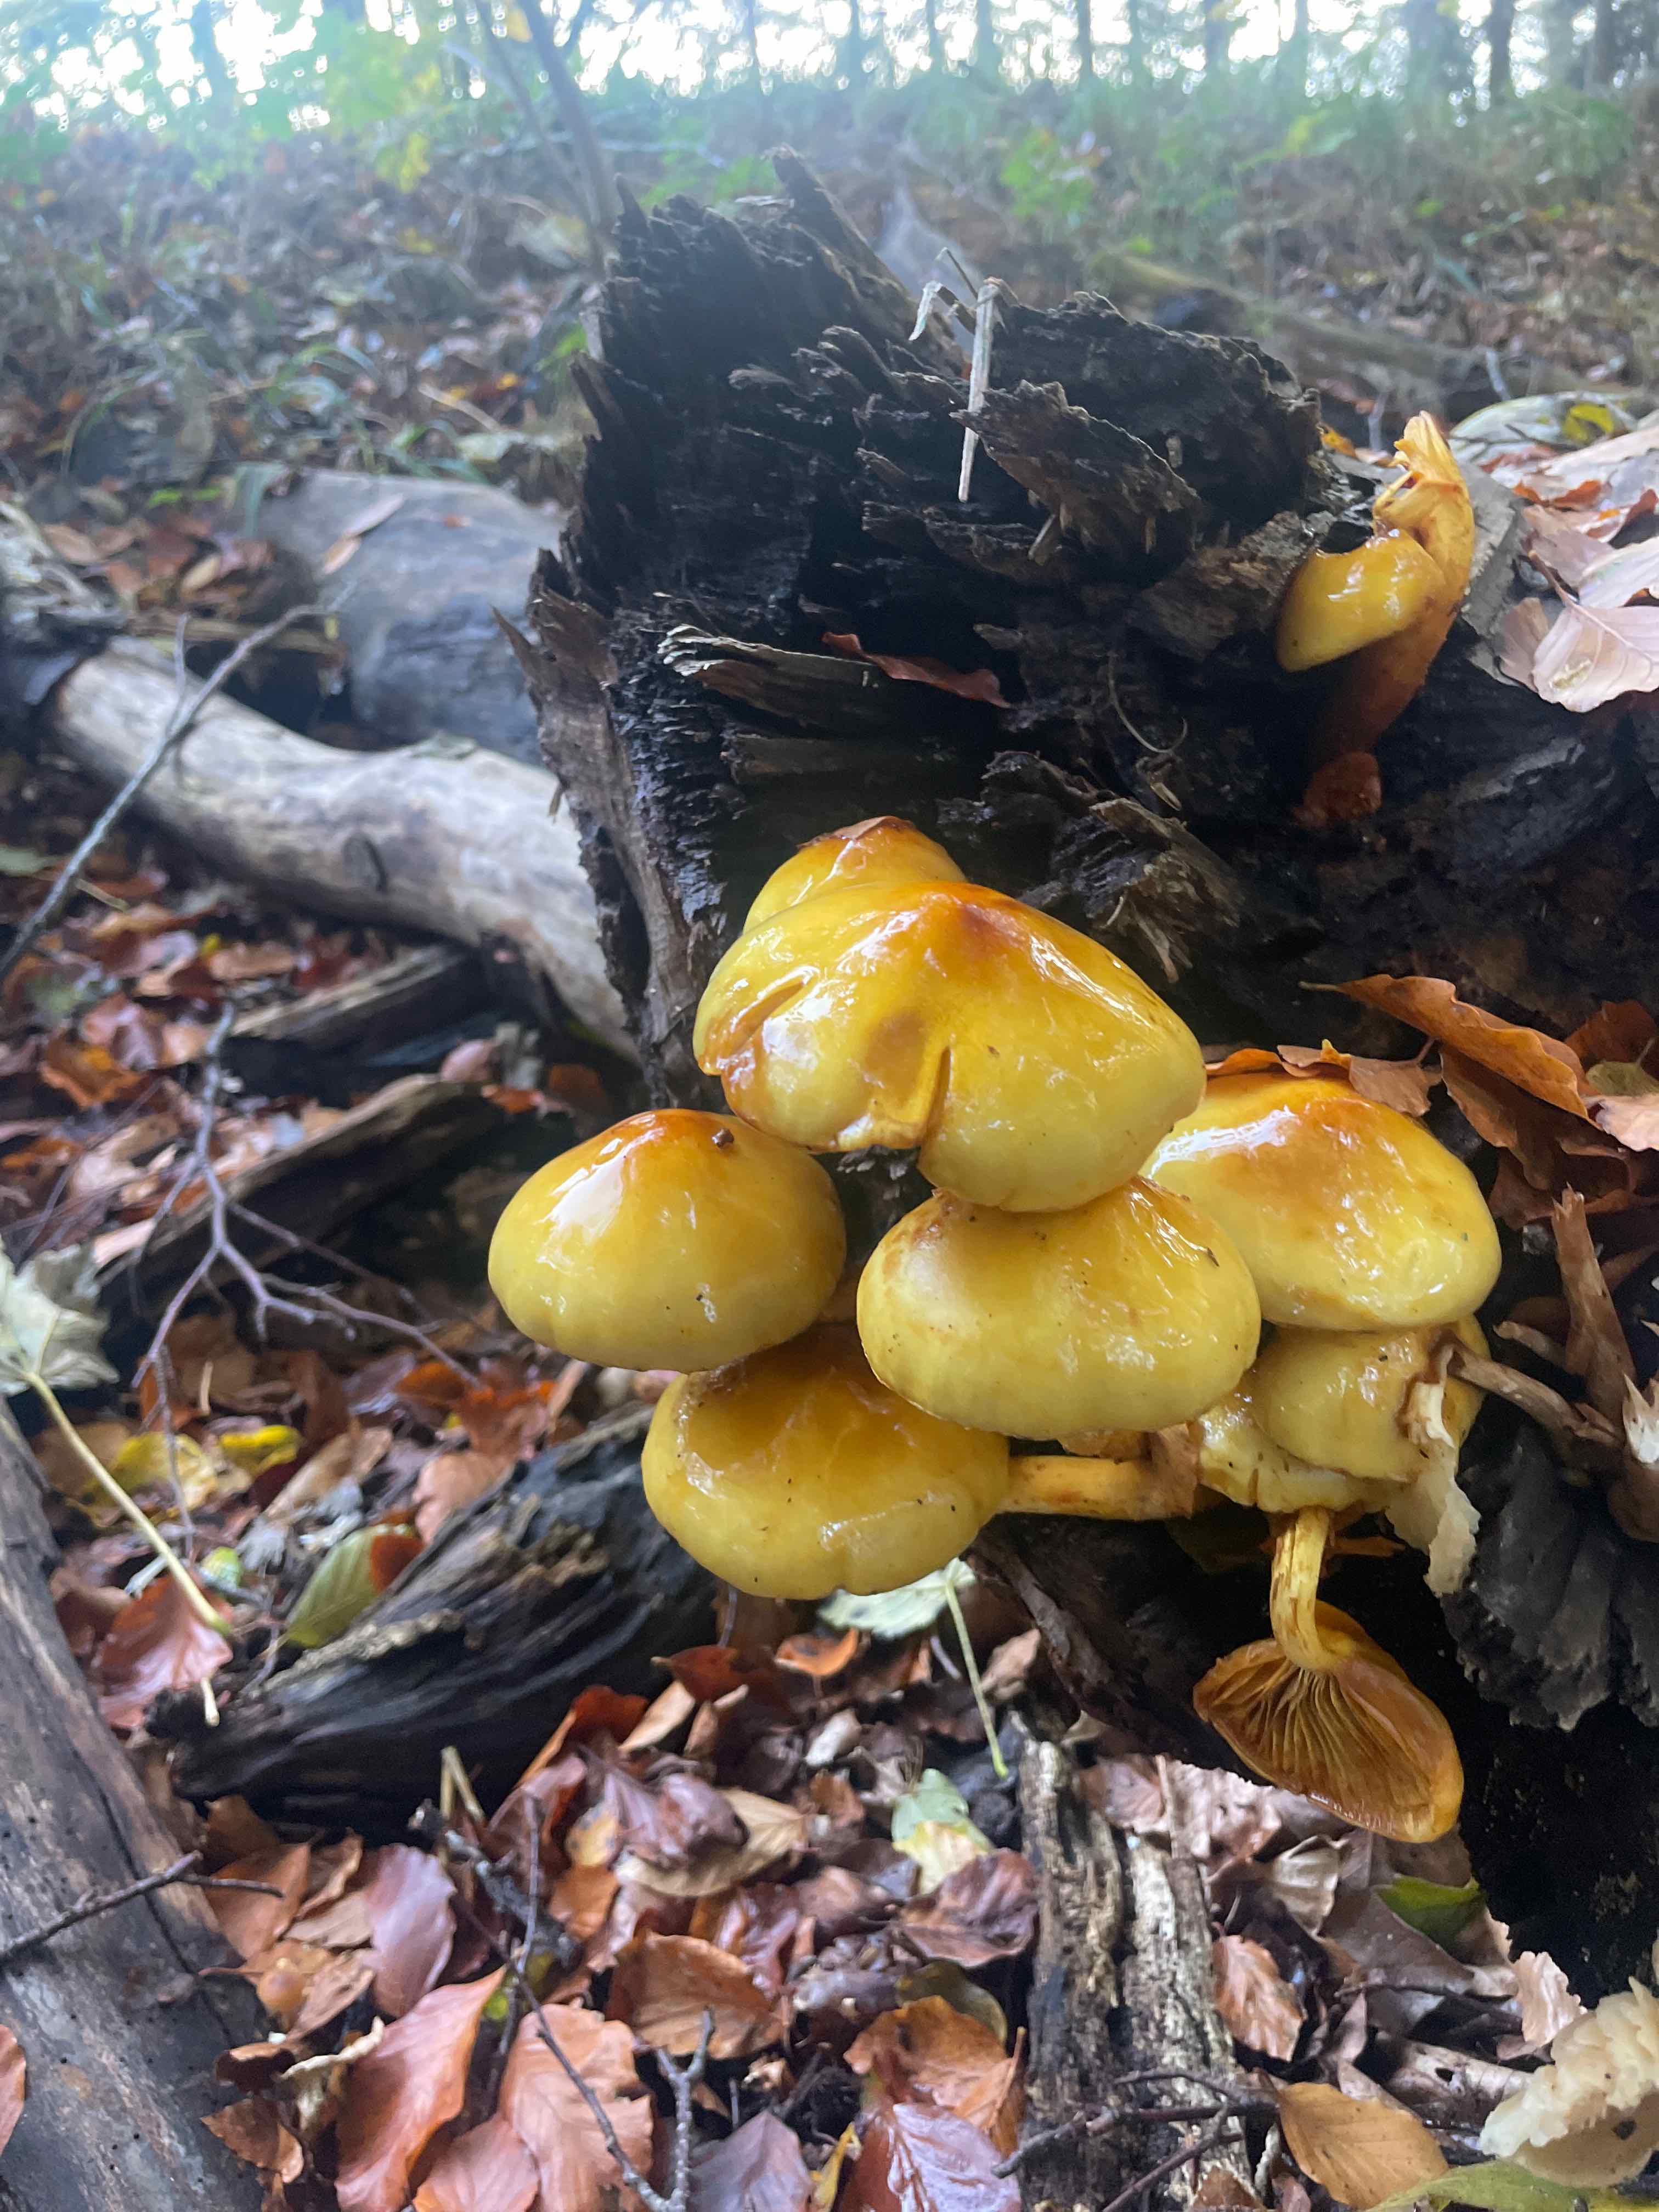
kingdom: Fungi
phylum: Basidiomycota
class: Agaricomycetes
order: Agaricales
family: Strophariaceae
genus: Pholiota
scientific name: Pholiota adiposa
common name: højtsiddende skælhat
